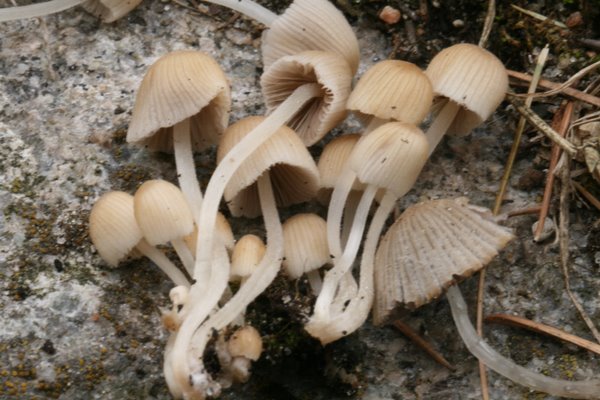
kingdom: Fungi
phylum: Basidiomycota
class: Agaricomycetes
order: Agaricales
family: Psathyrellaceae
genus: Coprinellus
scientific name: Coprinellus disseminatus
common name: bredsået blækhat
